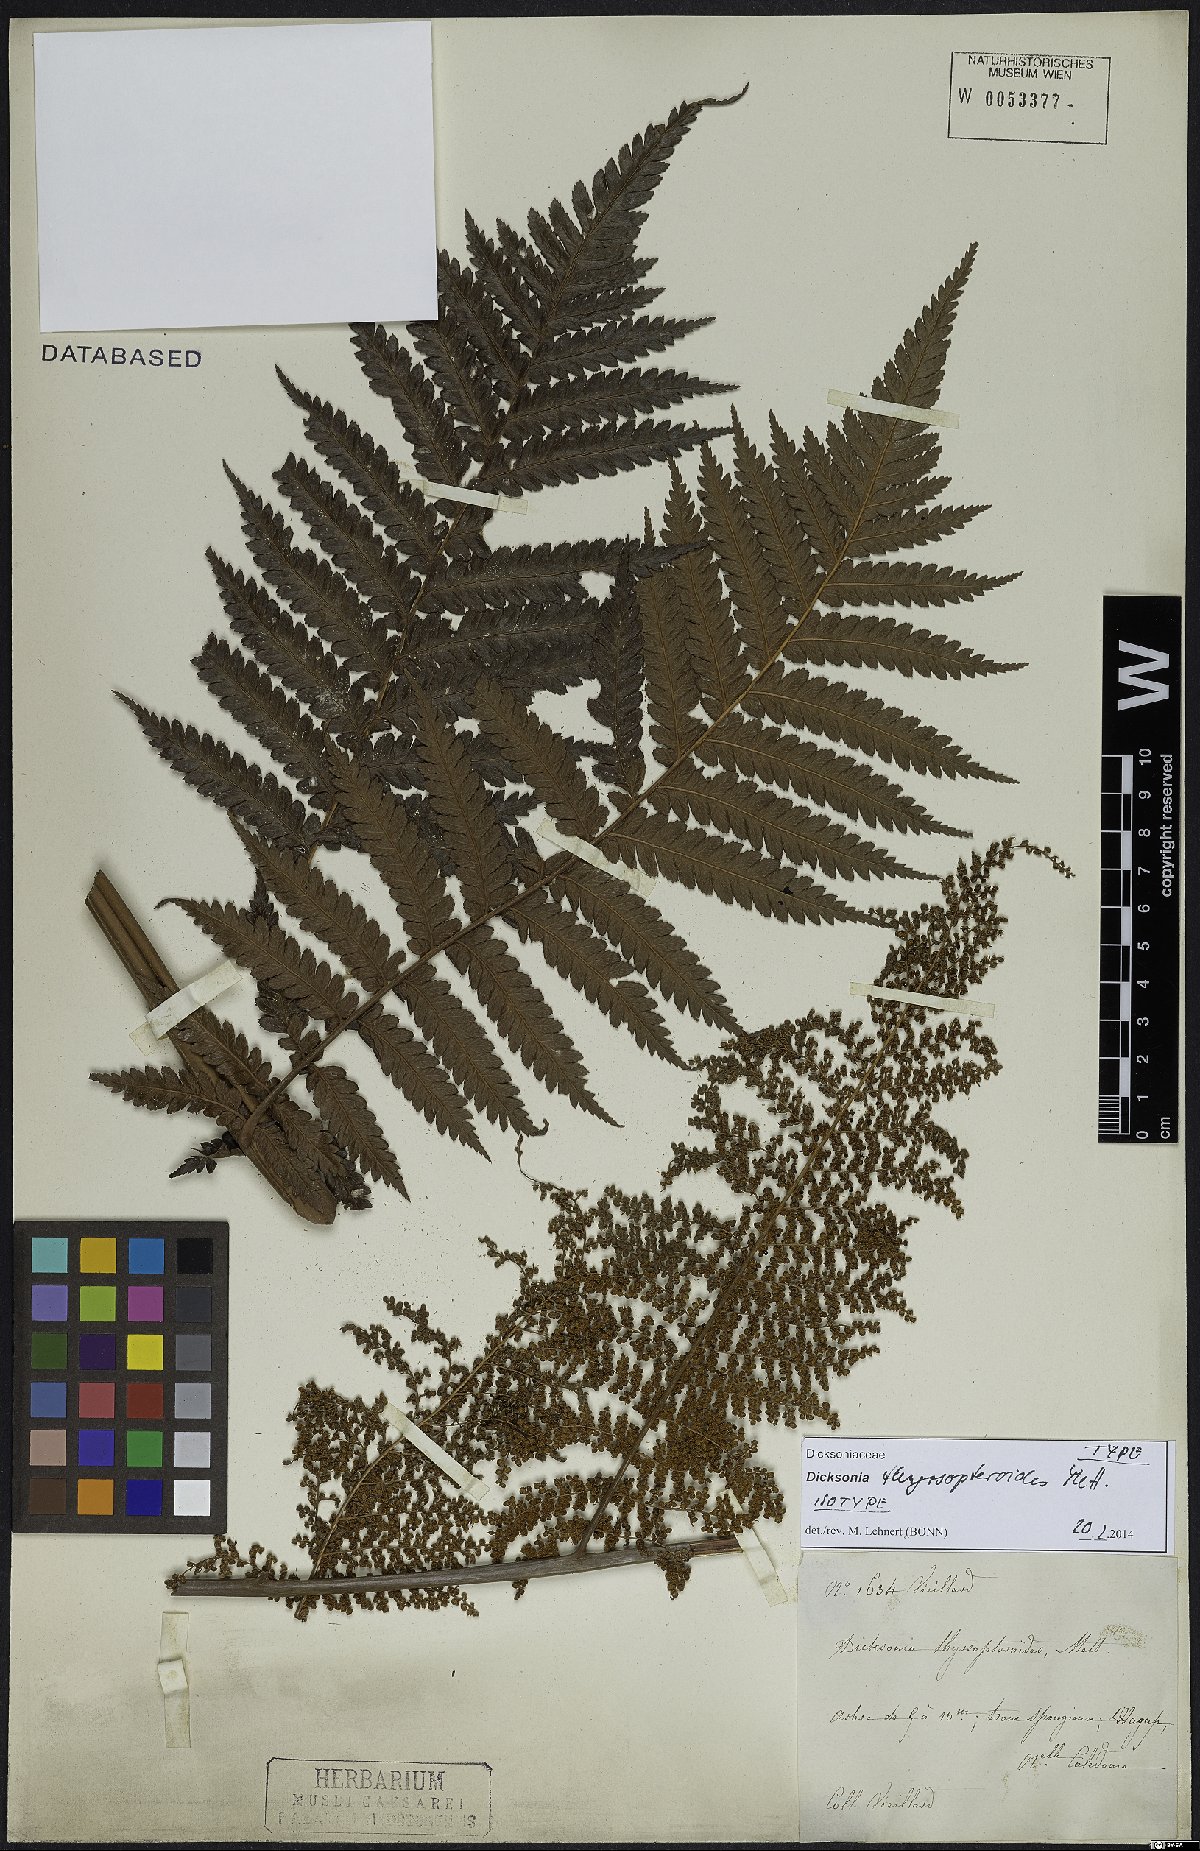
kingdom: Plantae
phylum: Tracheophyta
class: Polypodiopsida
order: Cyatheales
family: Dicksoniaceae
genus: Dicksonia
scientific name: Dicksonia thyrsopteroides
